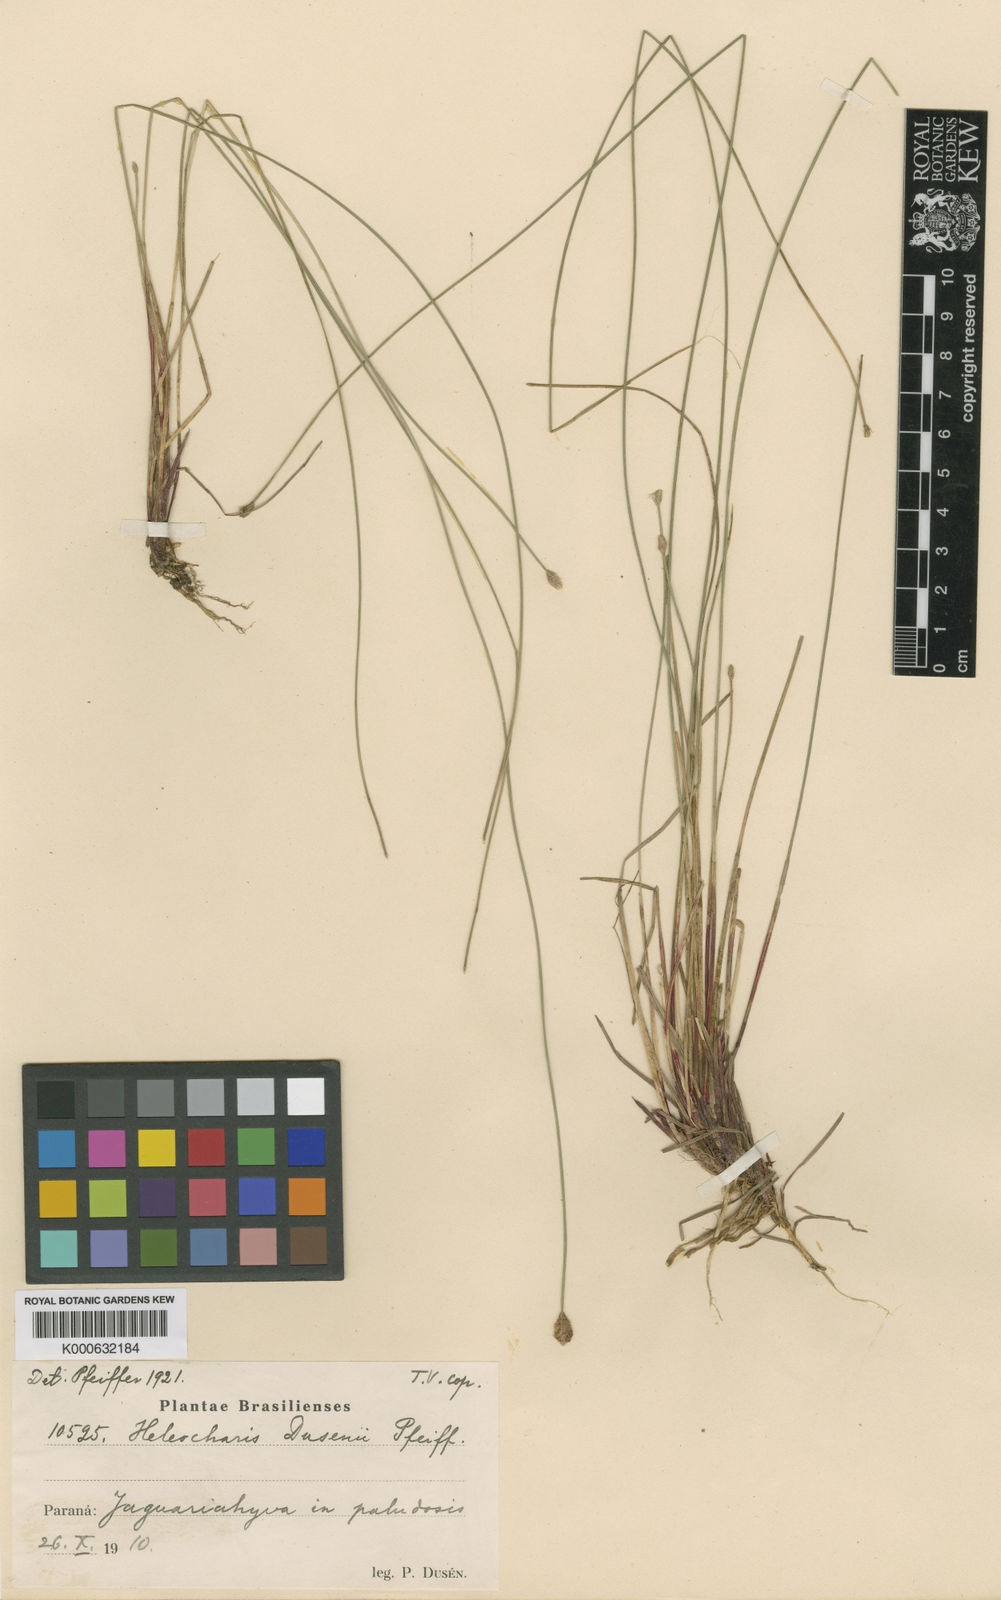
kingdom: Plantae
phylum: Tracheophyta
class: Liliopsida
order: Poales
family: Cyperaceae
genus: Eleocharis
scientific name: Eleocharis
